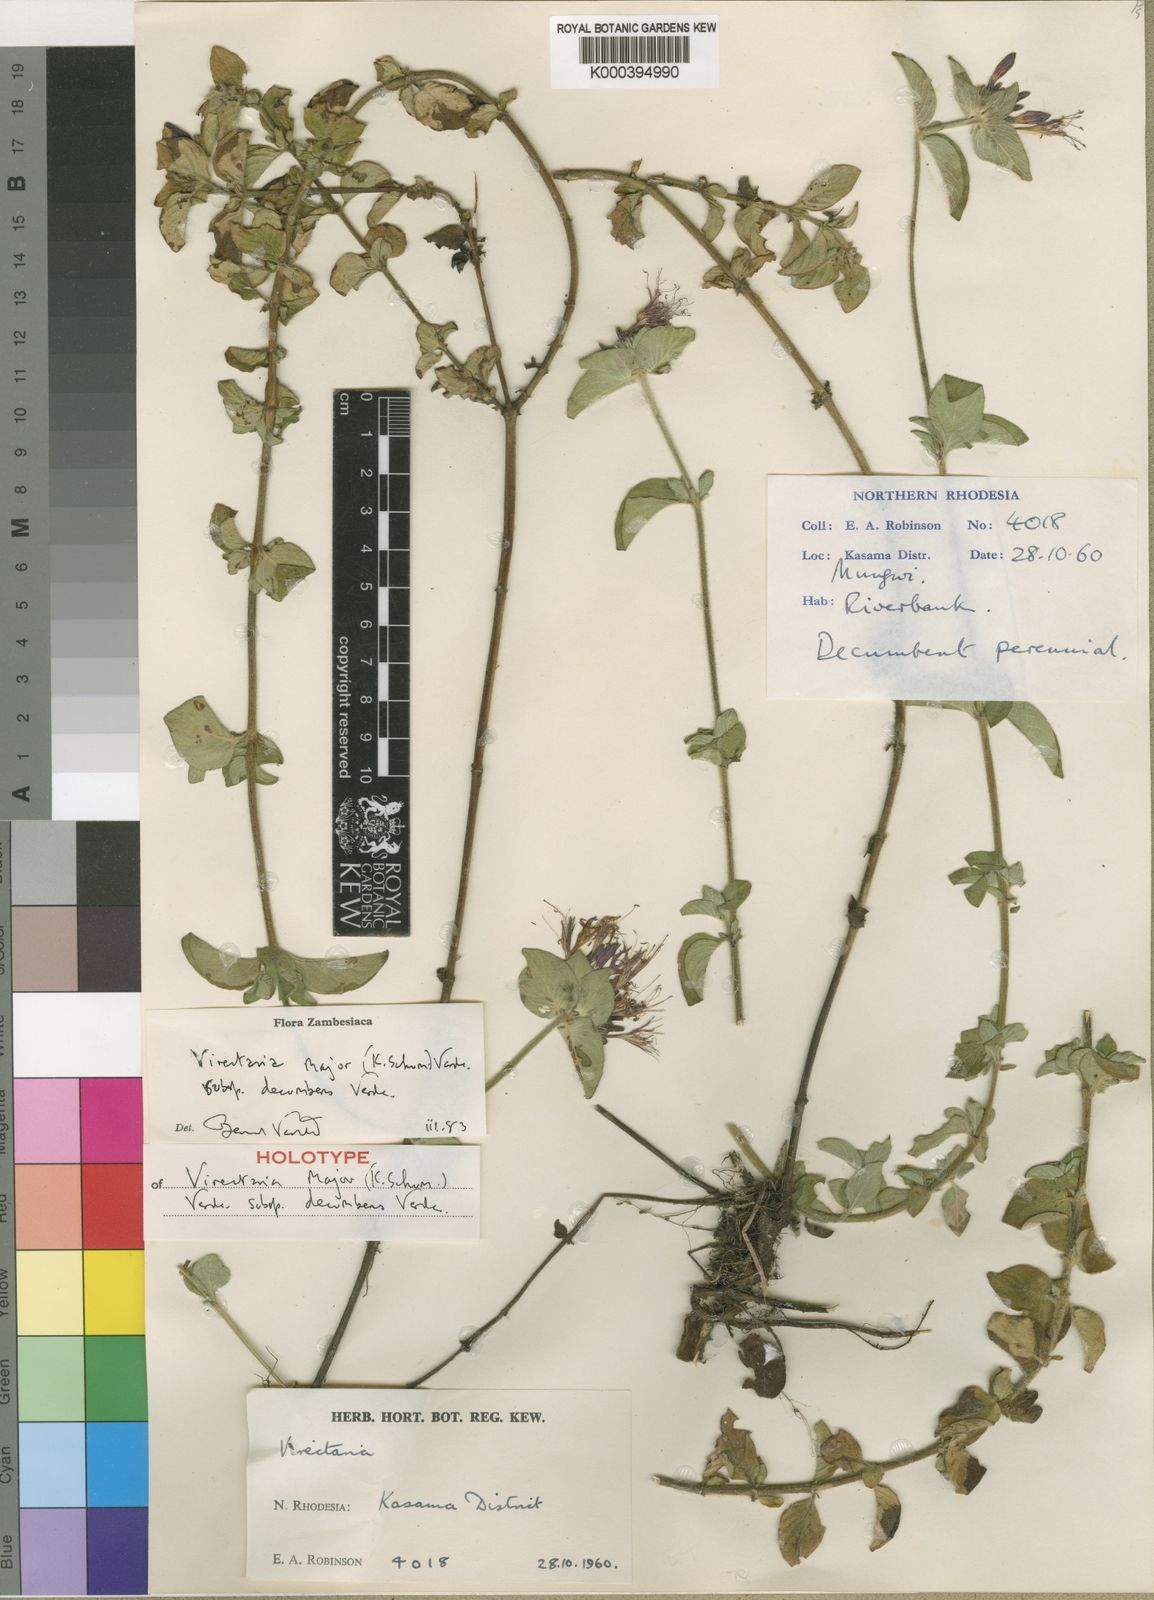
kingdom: Plantae
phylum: Tracheophyta
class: Magnoliopsida
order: Gentianales
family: Rubiaceae
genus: Virectaria
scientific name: Virectaria major
